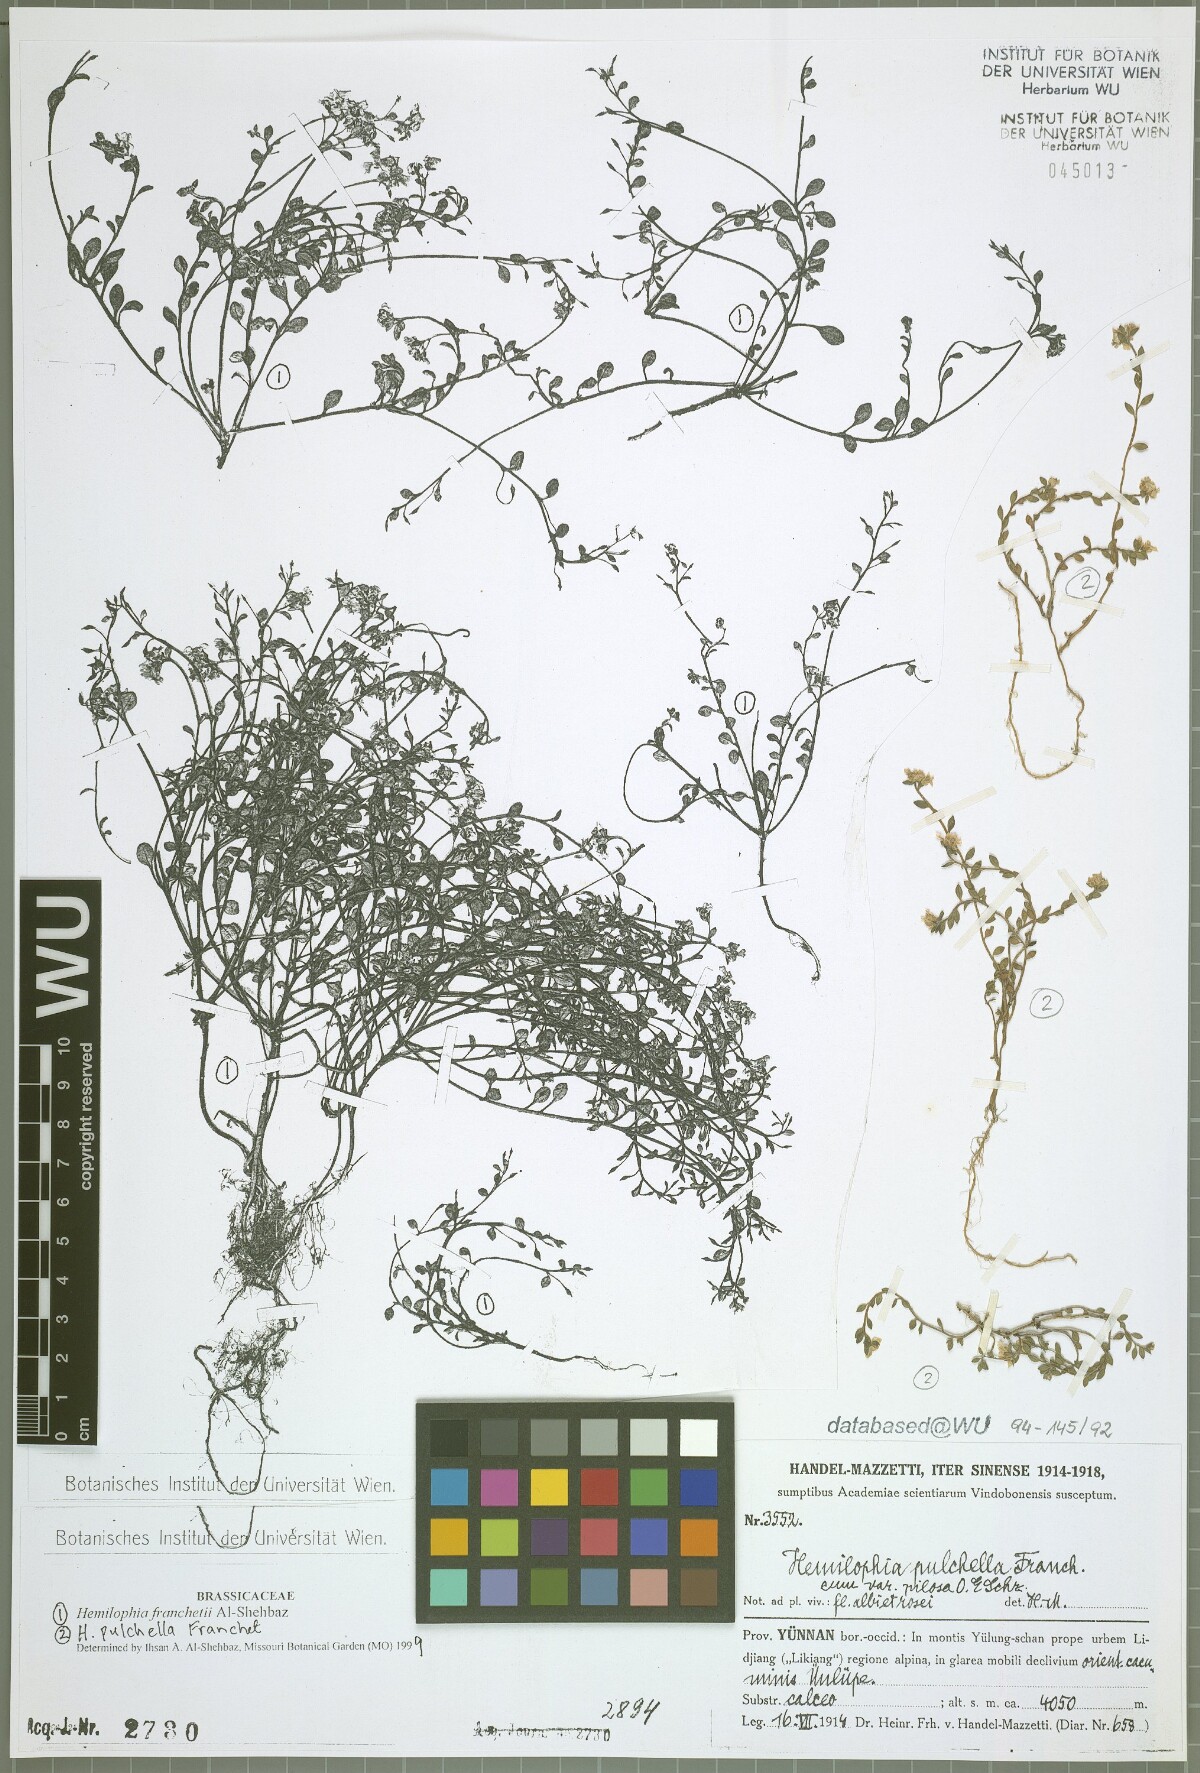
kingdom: Plantae
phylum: Tracheophyta
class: Magnoliopsida
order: Brassicales
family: Brassicaceae
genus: Hemilophia
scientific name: Hemilophia pulchella
